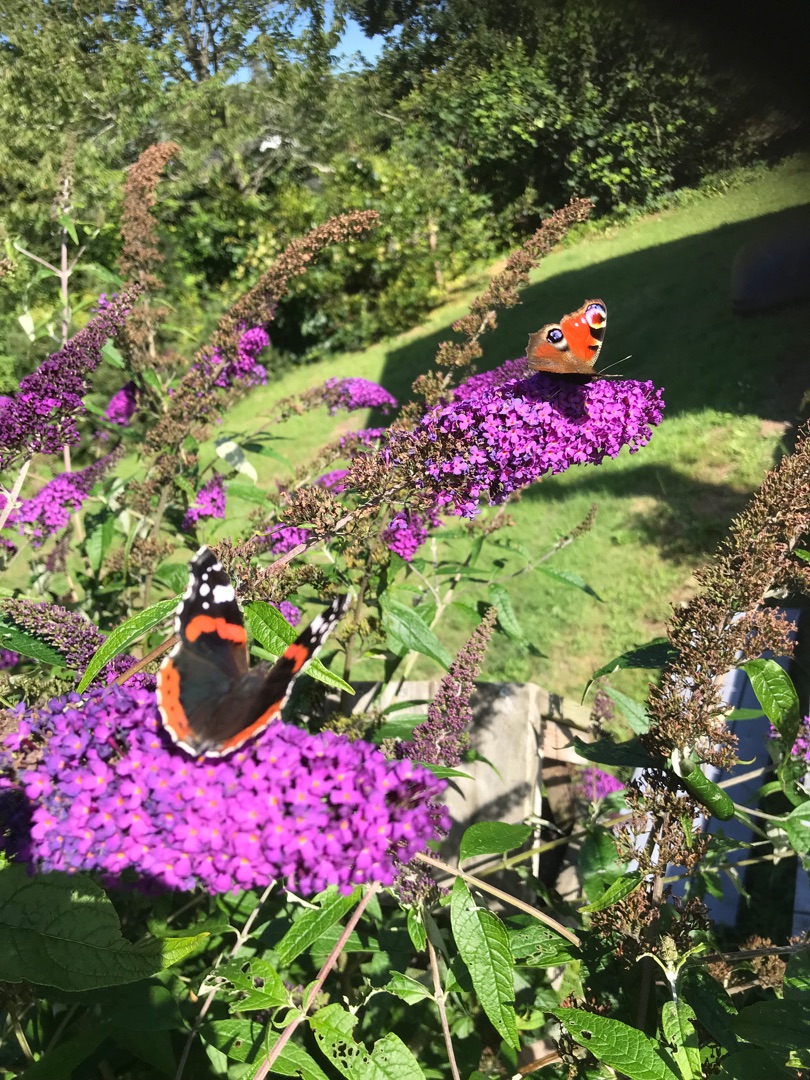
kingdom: Animalia
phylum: Arthropoda
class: Insecta
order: Lepidoptera
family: Nymphalidae
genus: Vanessa
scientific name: Vanessa atalanta
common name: Admiral
